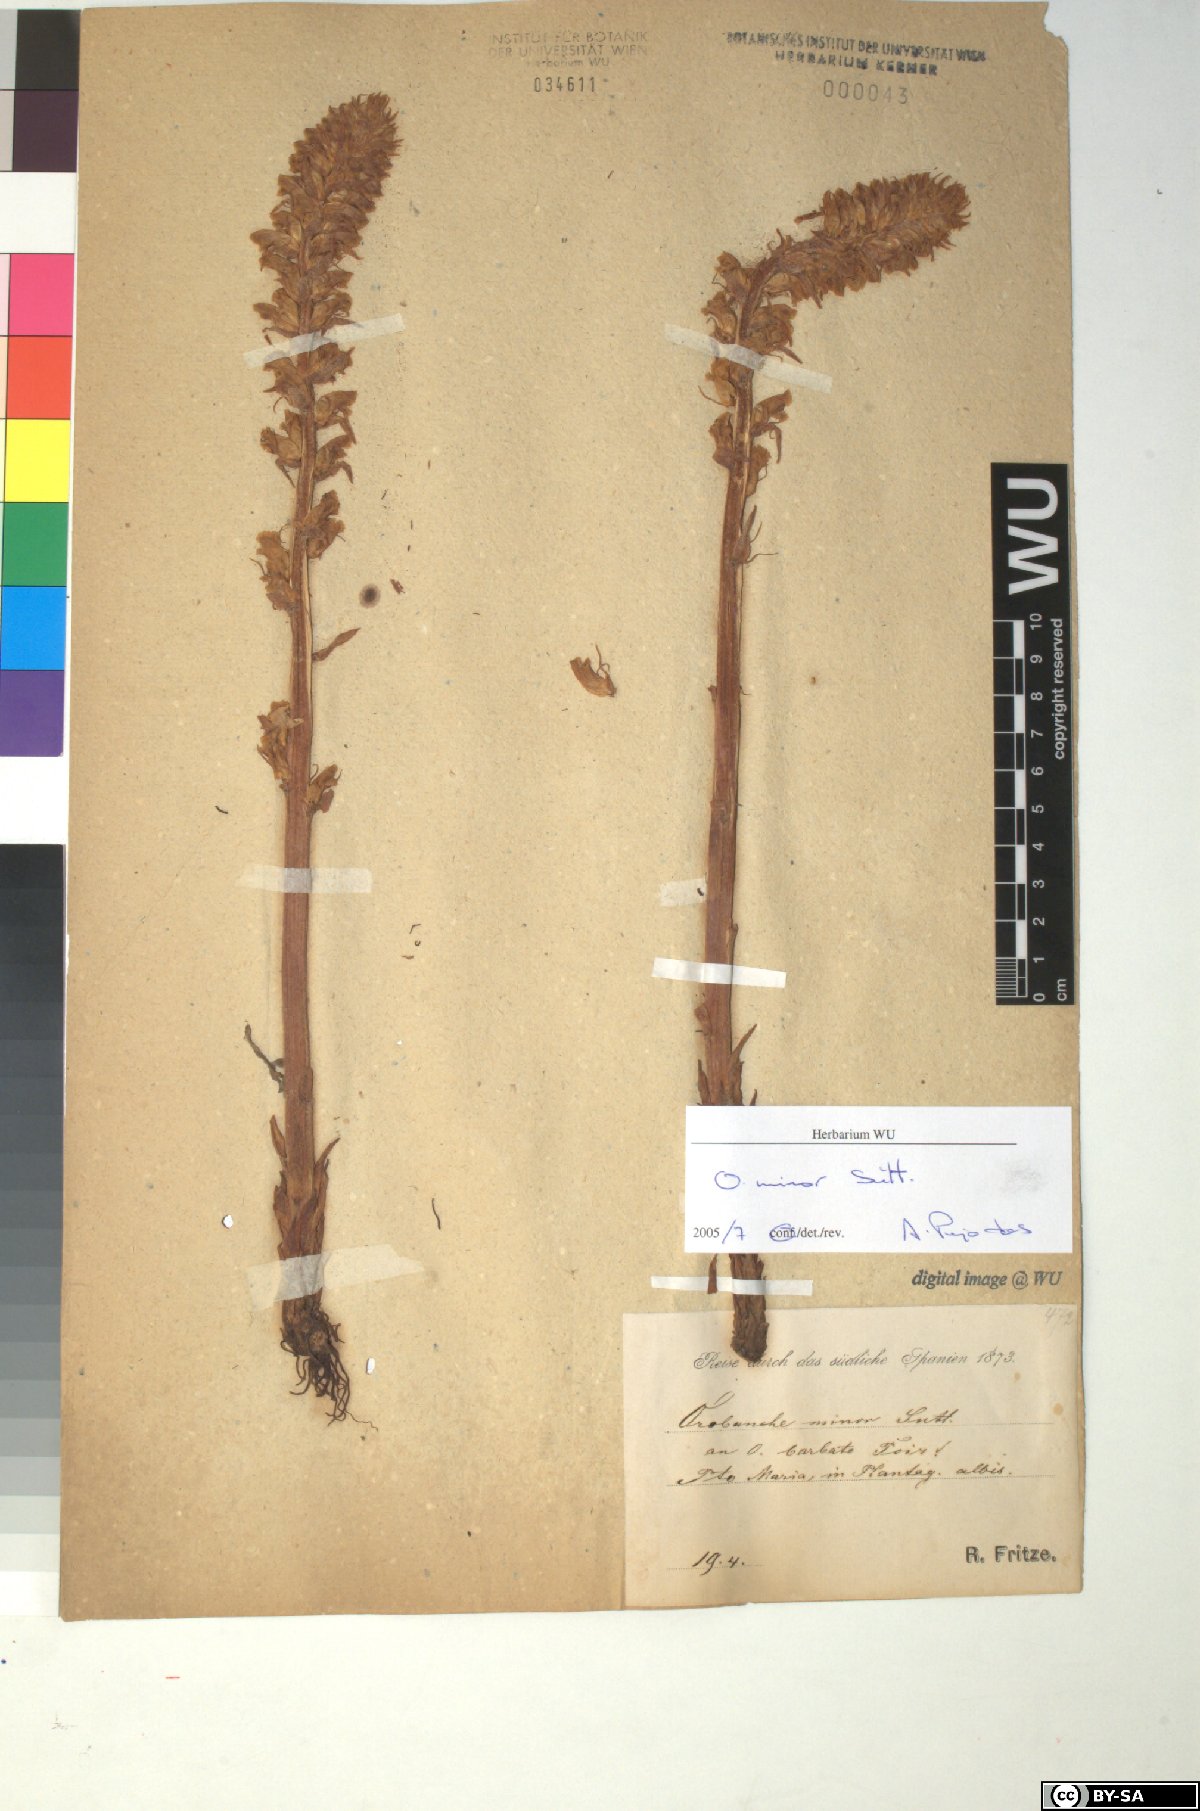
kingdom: Plantae
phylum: Tracheophyta
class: Magnoliopsida
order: Lamiales
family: Orobanchaceae
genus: Orobanche
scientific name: Orobanche minor
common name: Common broomrape
